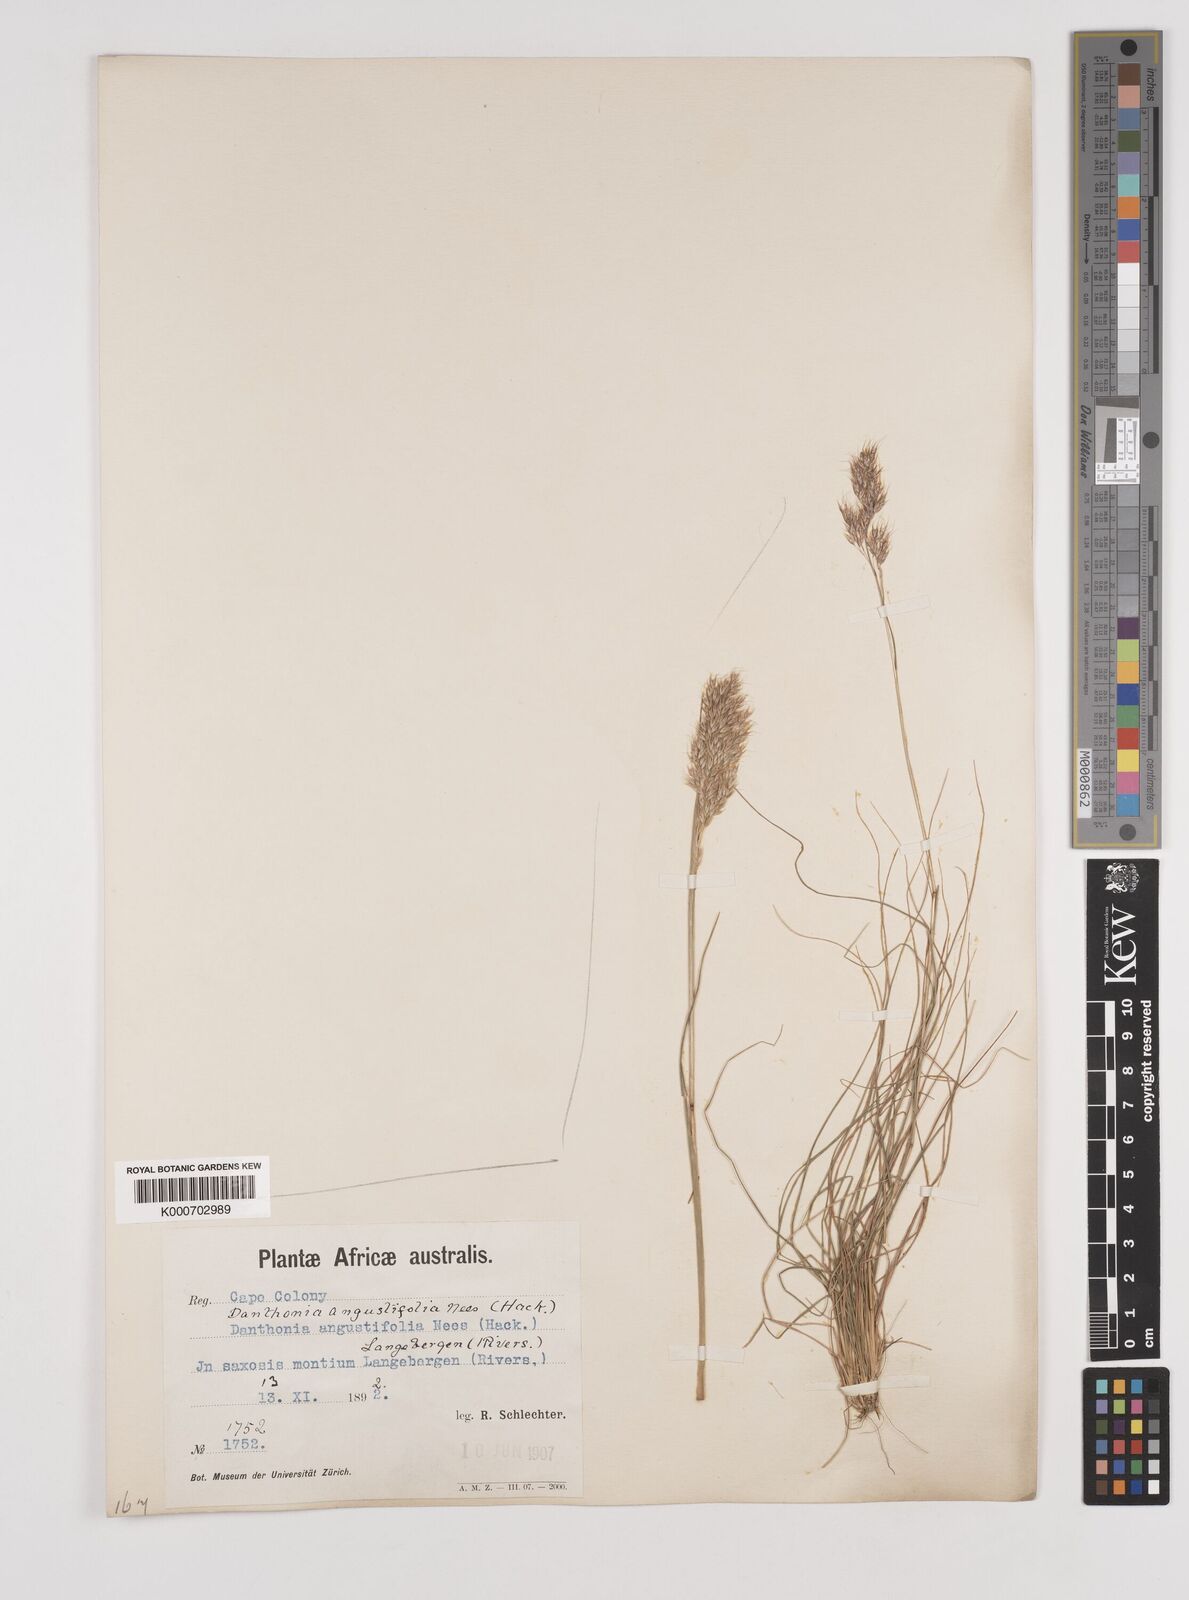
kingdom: Plantae
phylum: Tracheophyta
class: Liliopsida
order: Poales
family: Poaceae
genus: Pentameris
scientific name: Pentameris pallida
